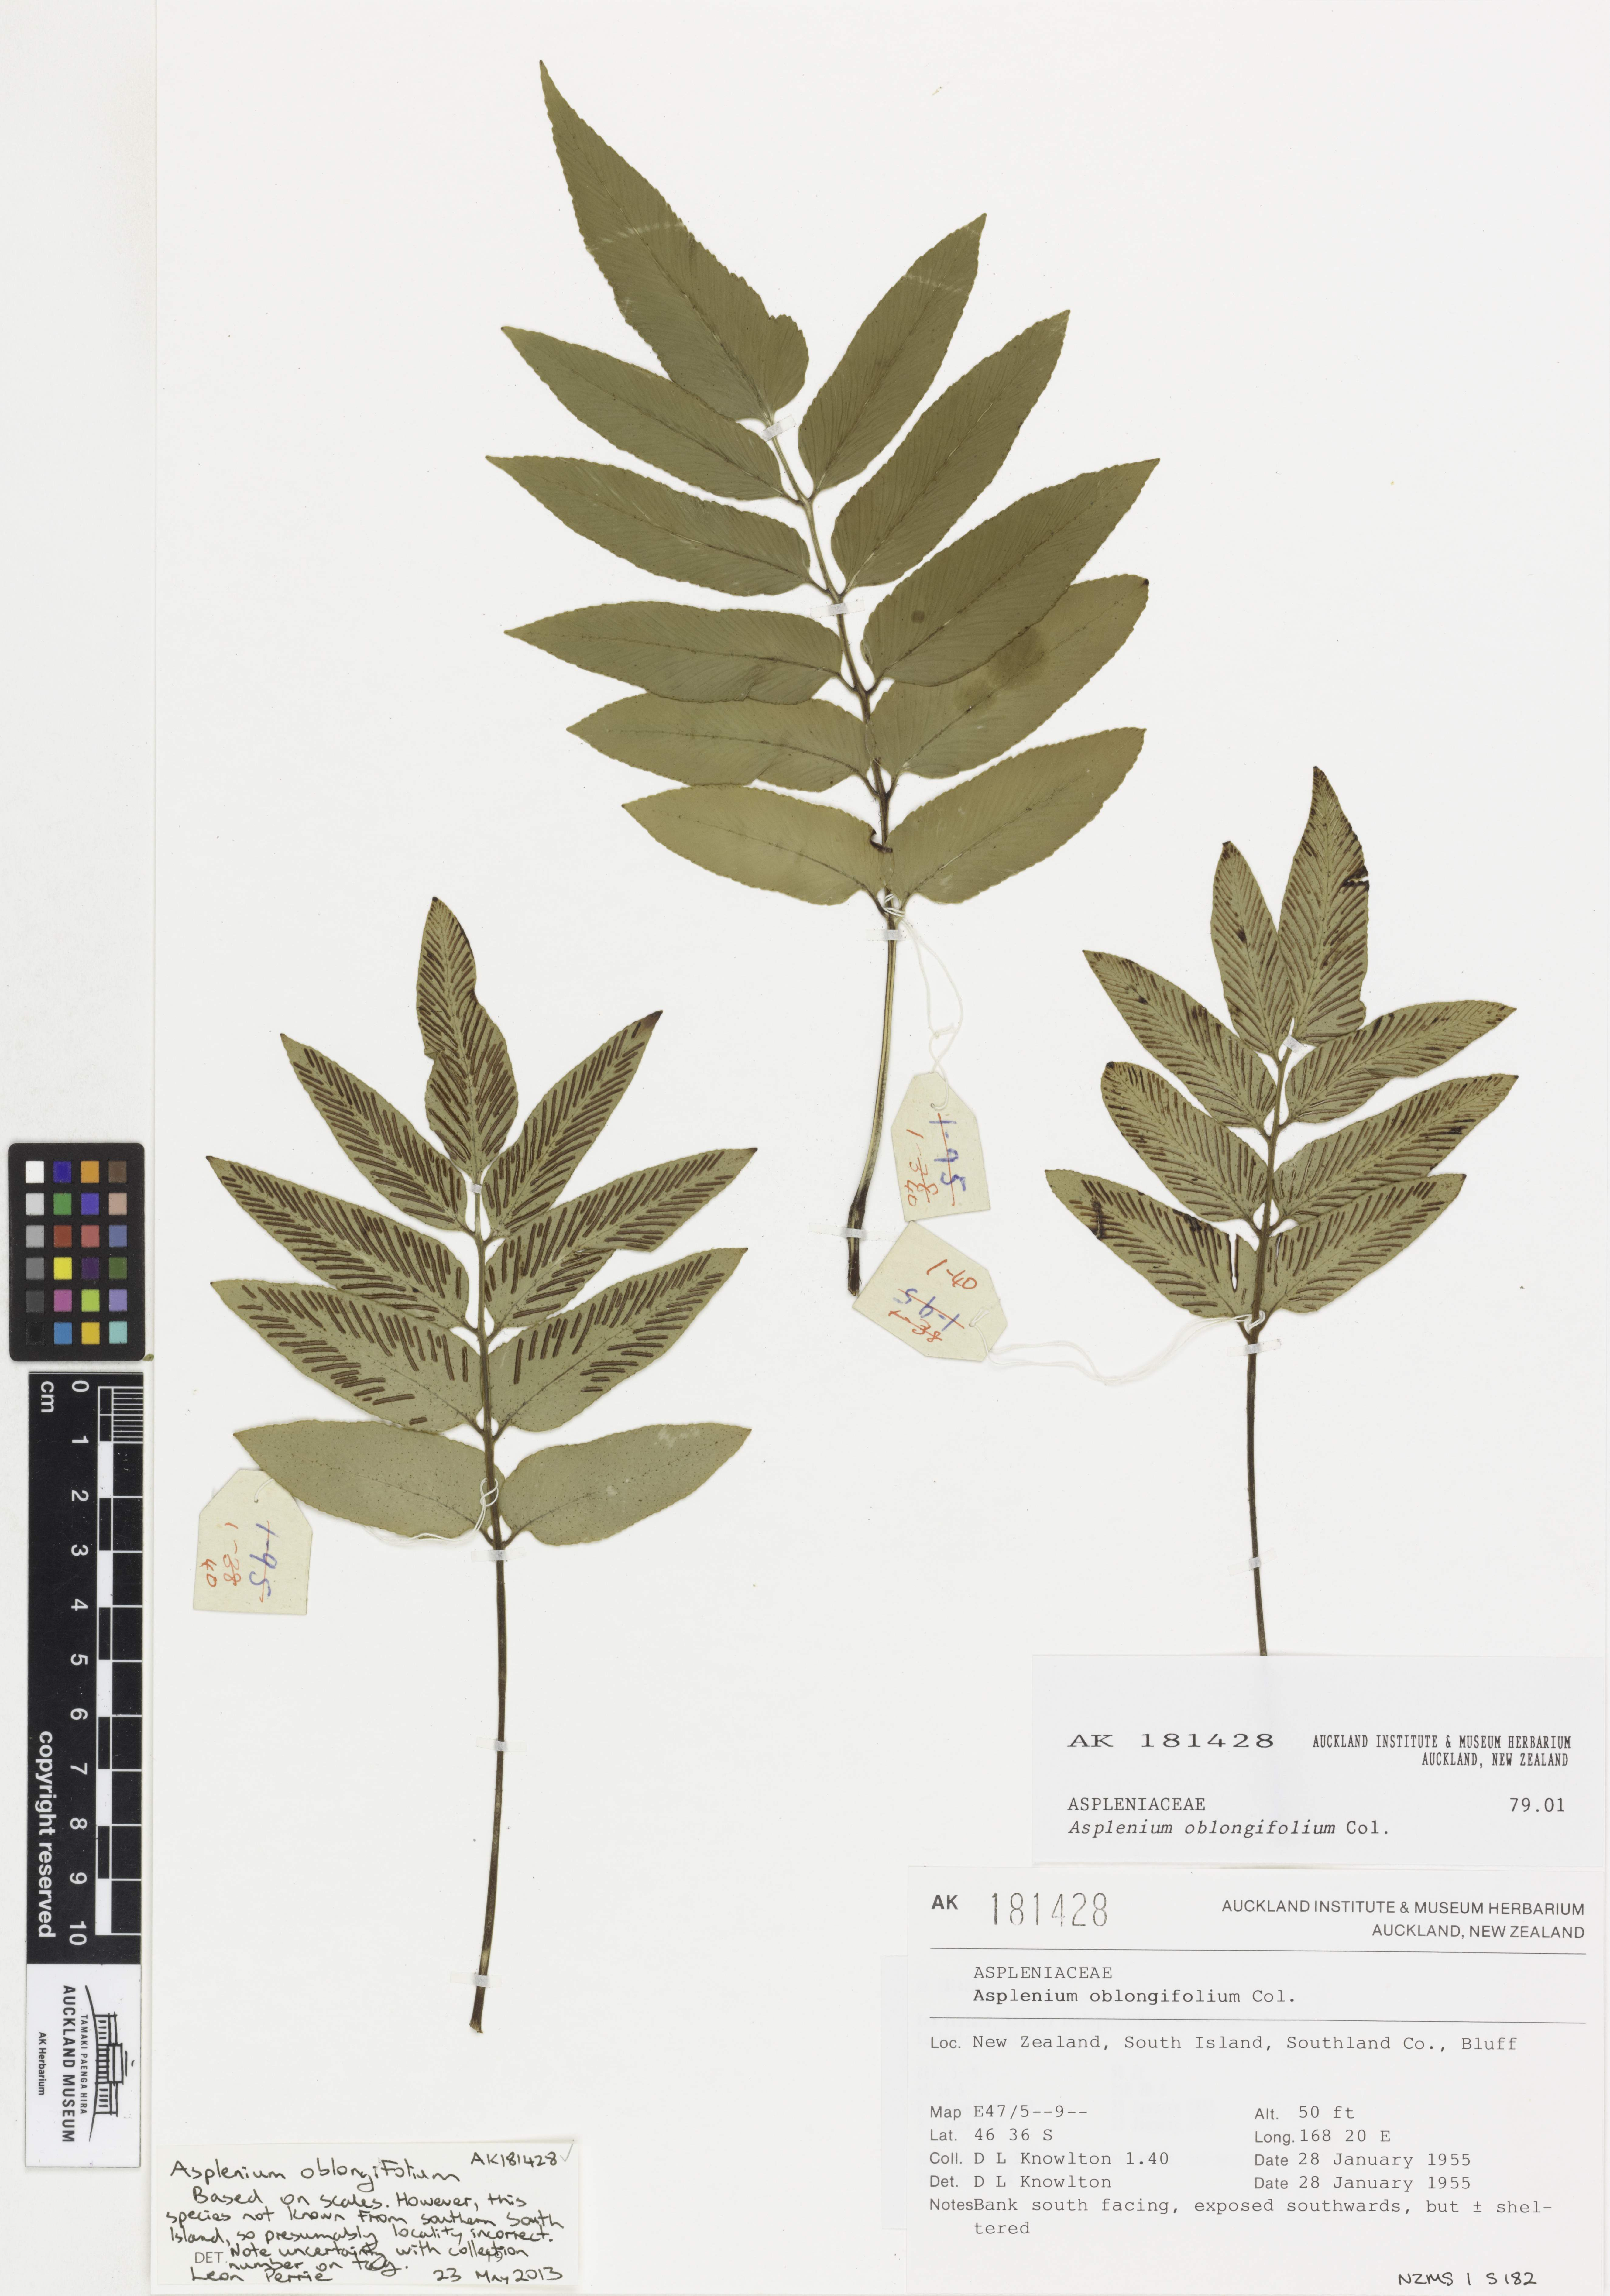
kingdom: Plantae
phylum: Tracheophyta
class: Polypodiopsida
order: Polypodiales
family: Aspleniaceae
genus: Asplenium
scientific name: Asplenium oblongifolium
